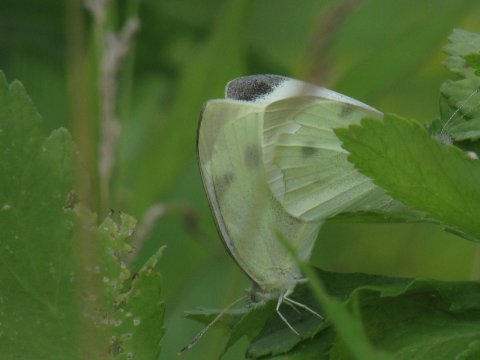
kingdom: Animalia
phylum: Arthropoda
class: Insecta
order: Lepidoptera
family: Pieridae
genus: Pieris
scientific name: Pieris rapae
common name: Cabbage White
